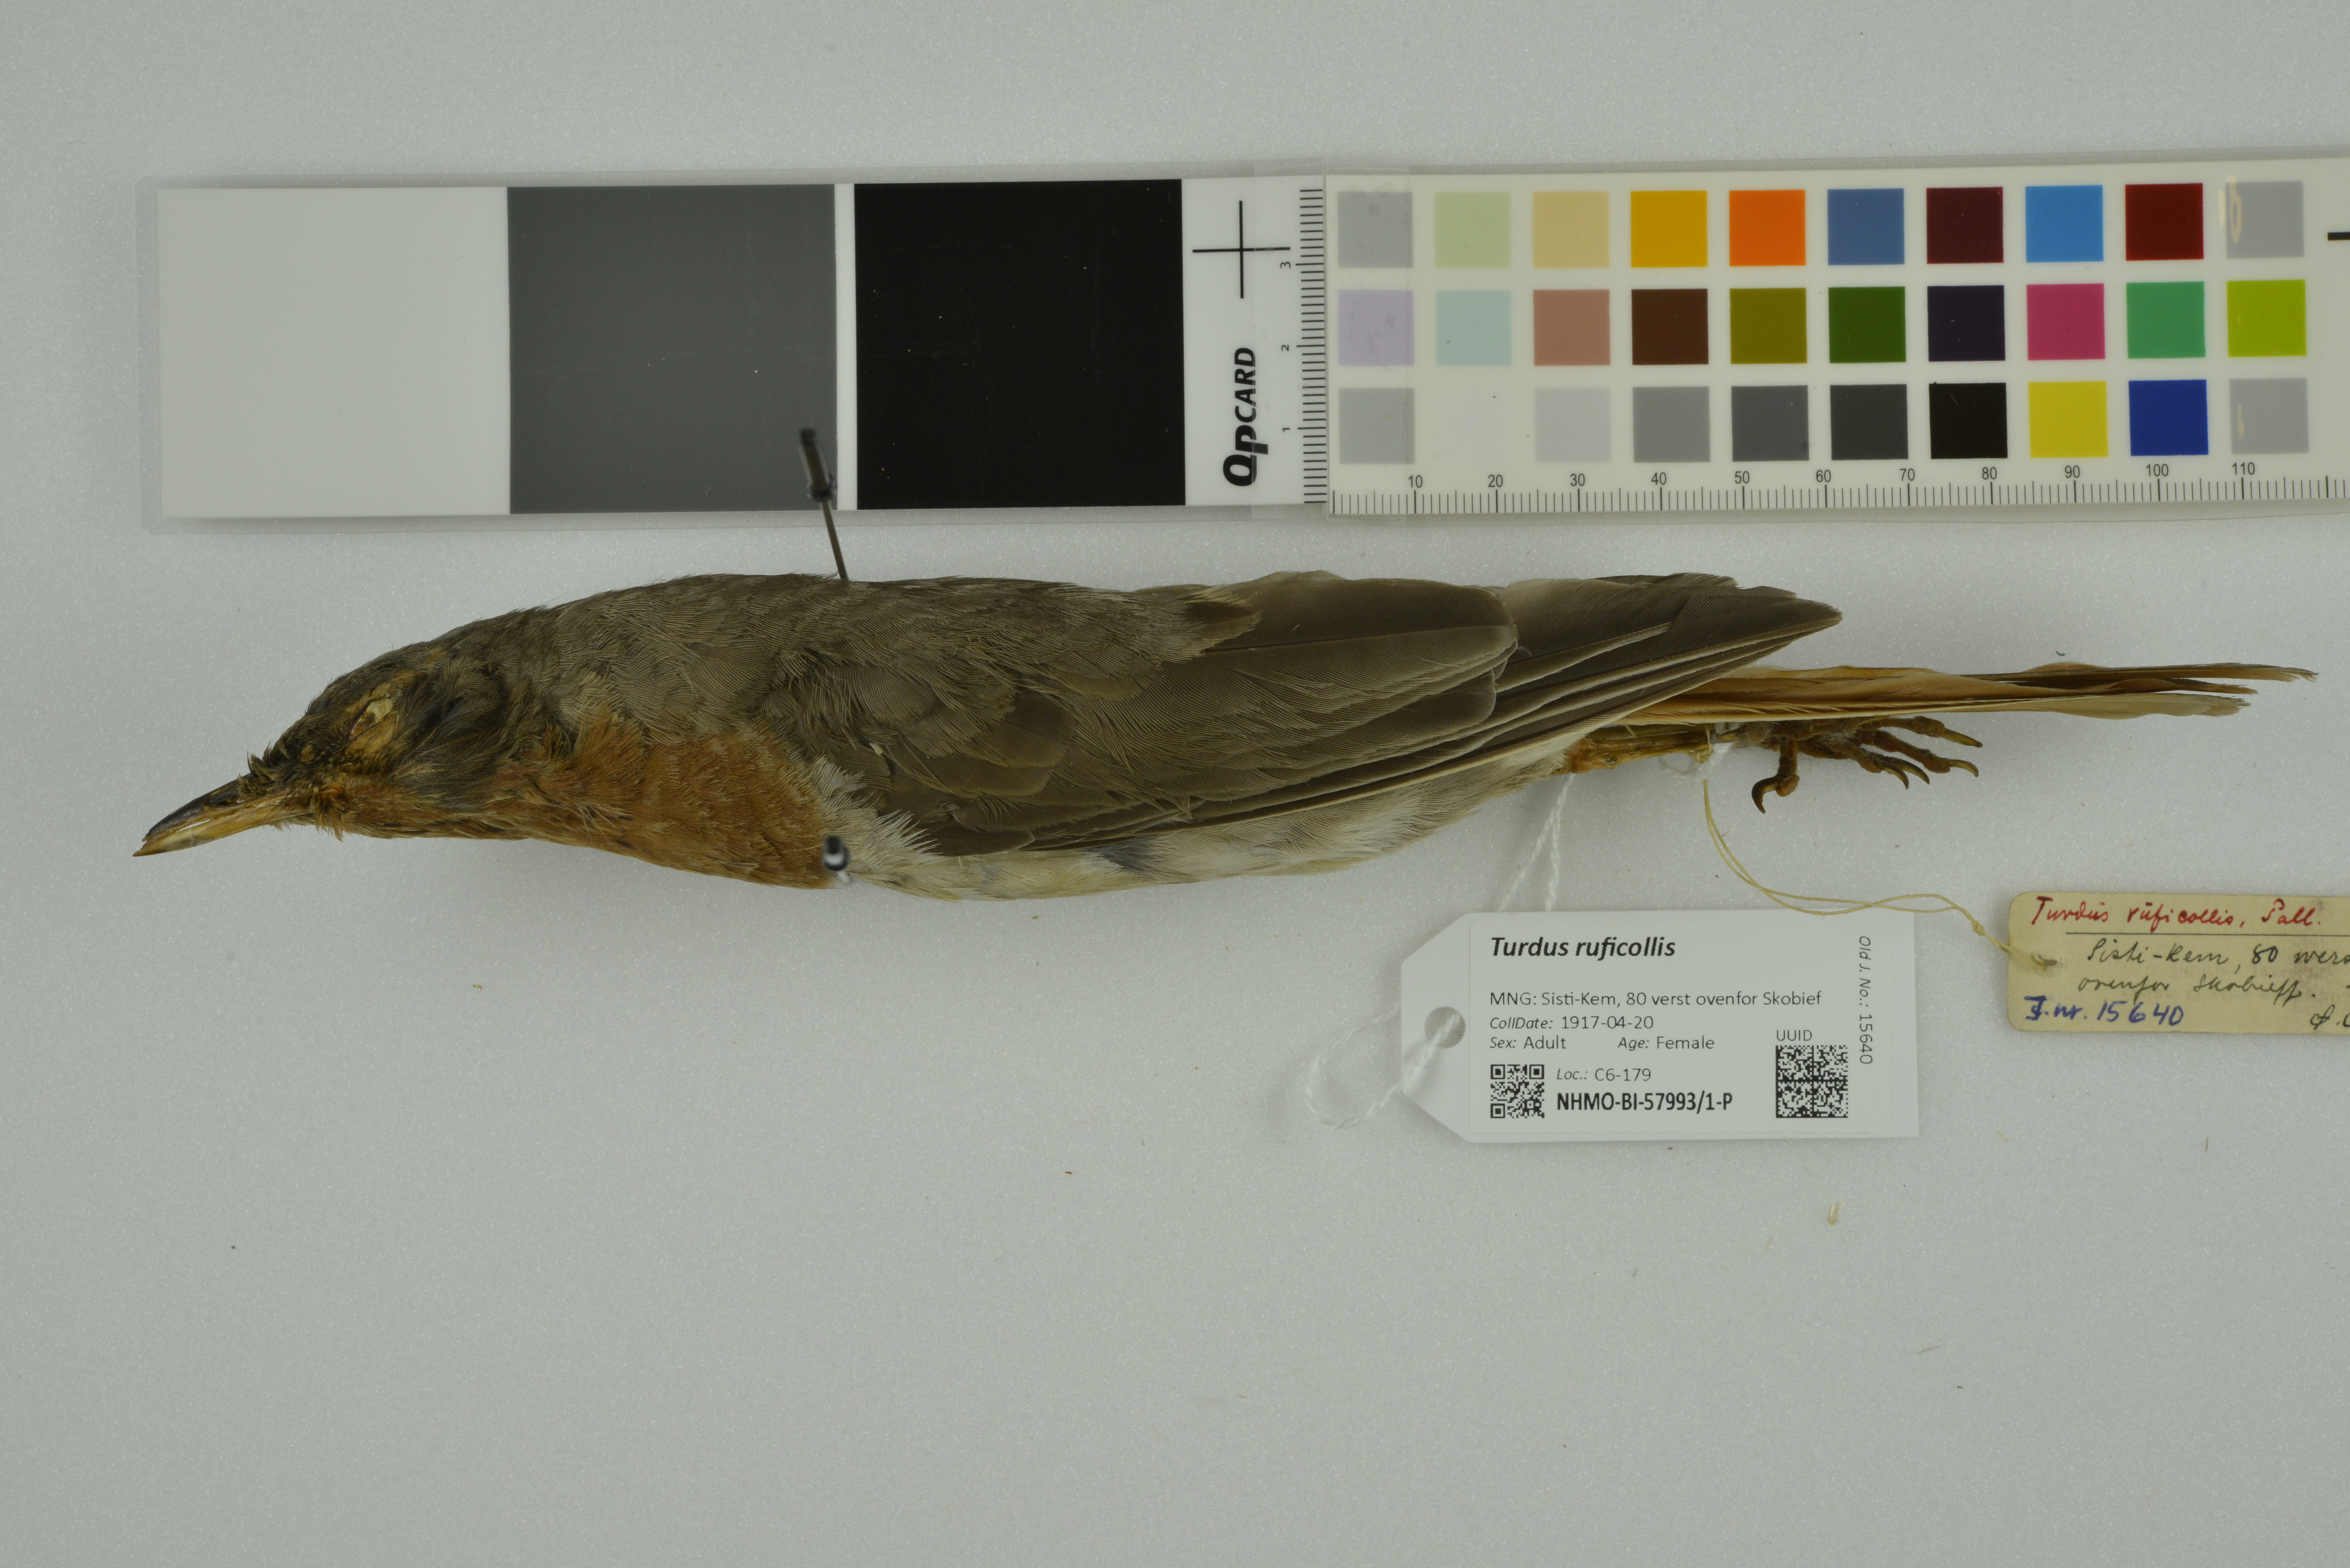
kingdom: Animalia
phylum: Chordata
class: Aves
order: Passeriformes
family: Turdidae
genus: Turdus
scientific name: Turdus ruficollis
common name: Red-throated thrush
